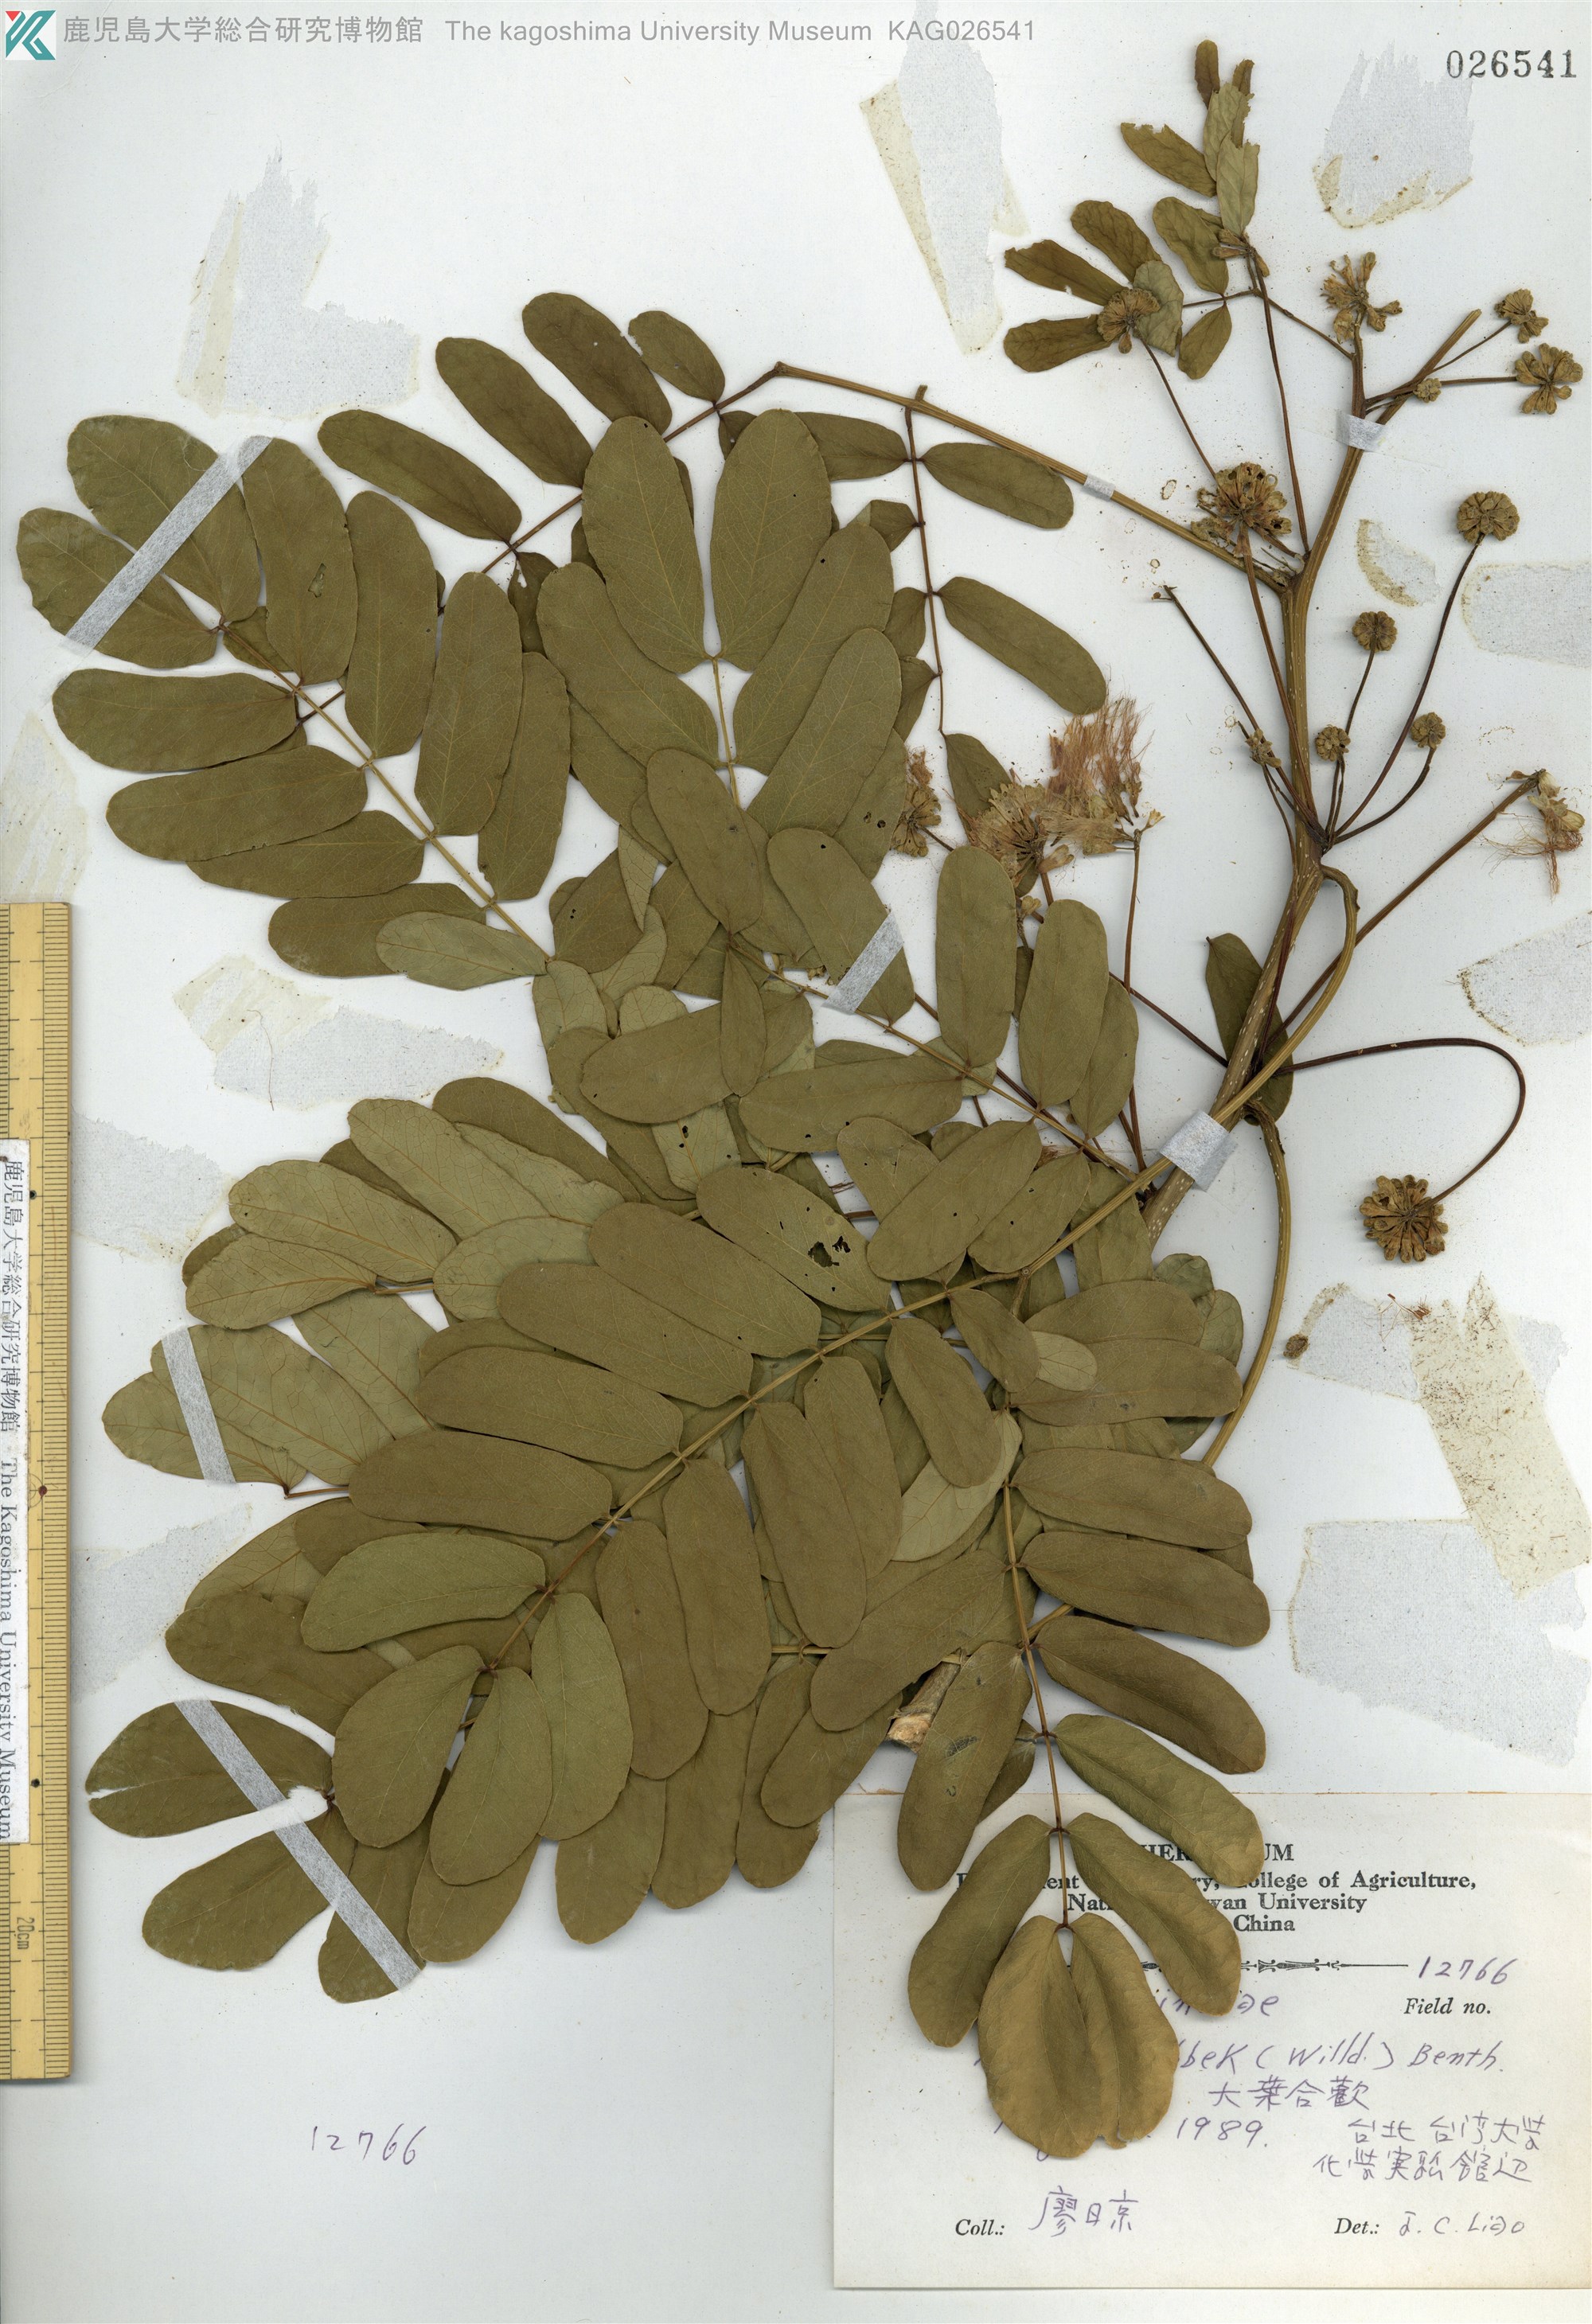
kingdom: Plantae
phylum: Tracheophyta
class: Magnoliopsida
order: Fabales
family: Fabaceae
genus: Albizia
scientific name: Albizia lebbeck
